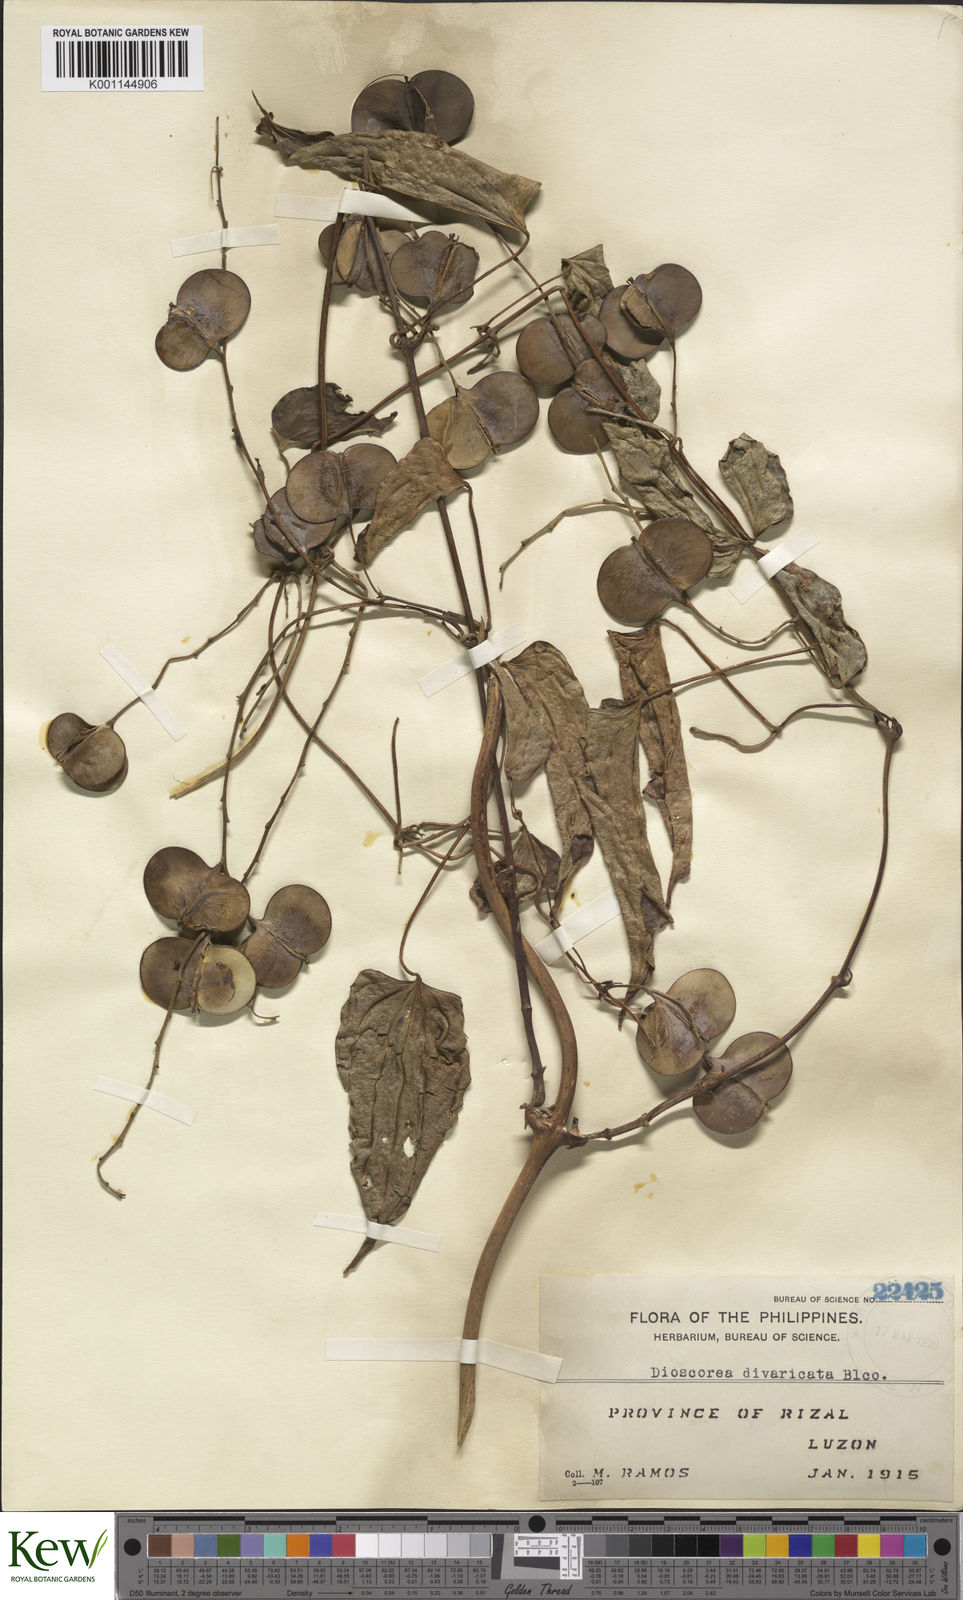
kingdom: Plantae
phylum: Tracheophyta
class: Liliopsida
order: Dioscoreales
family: Dioscoreaceae
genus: Dioscorea
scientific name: Dioscorea divaricata
